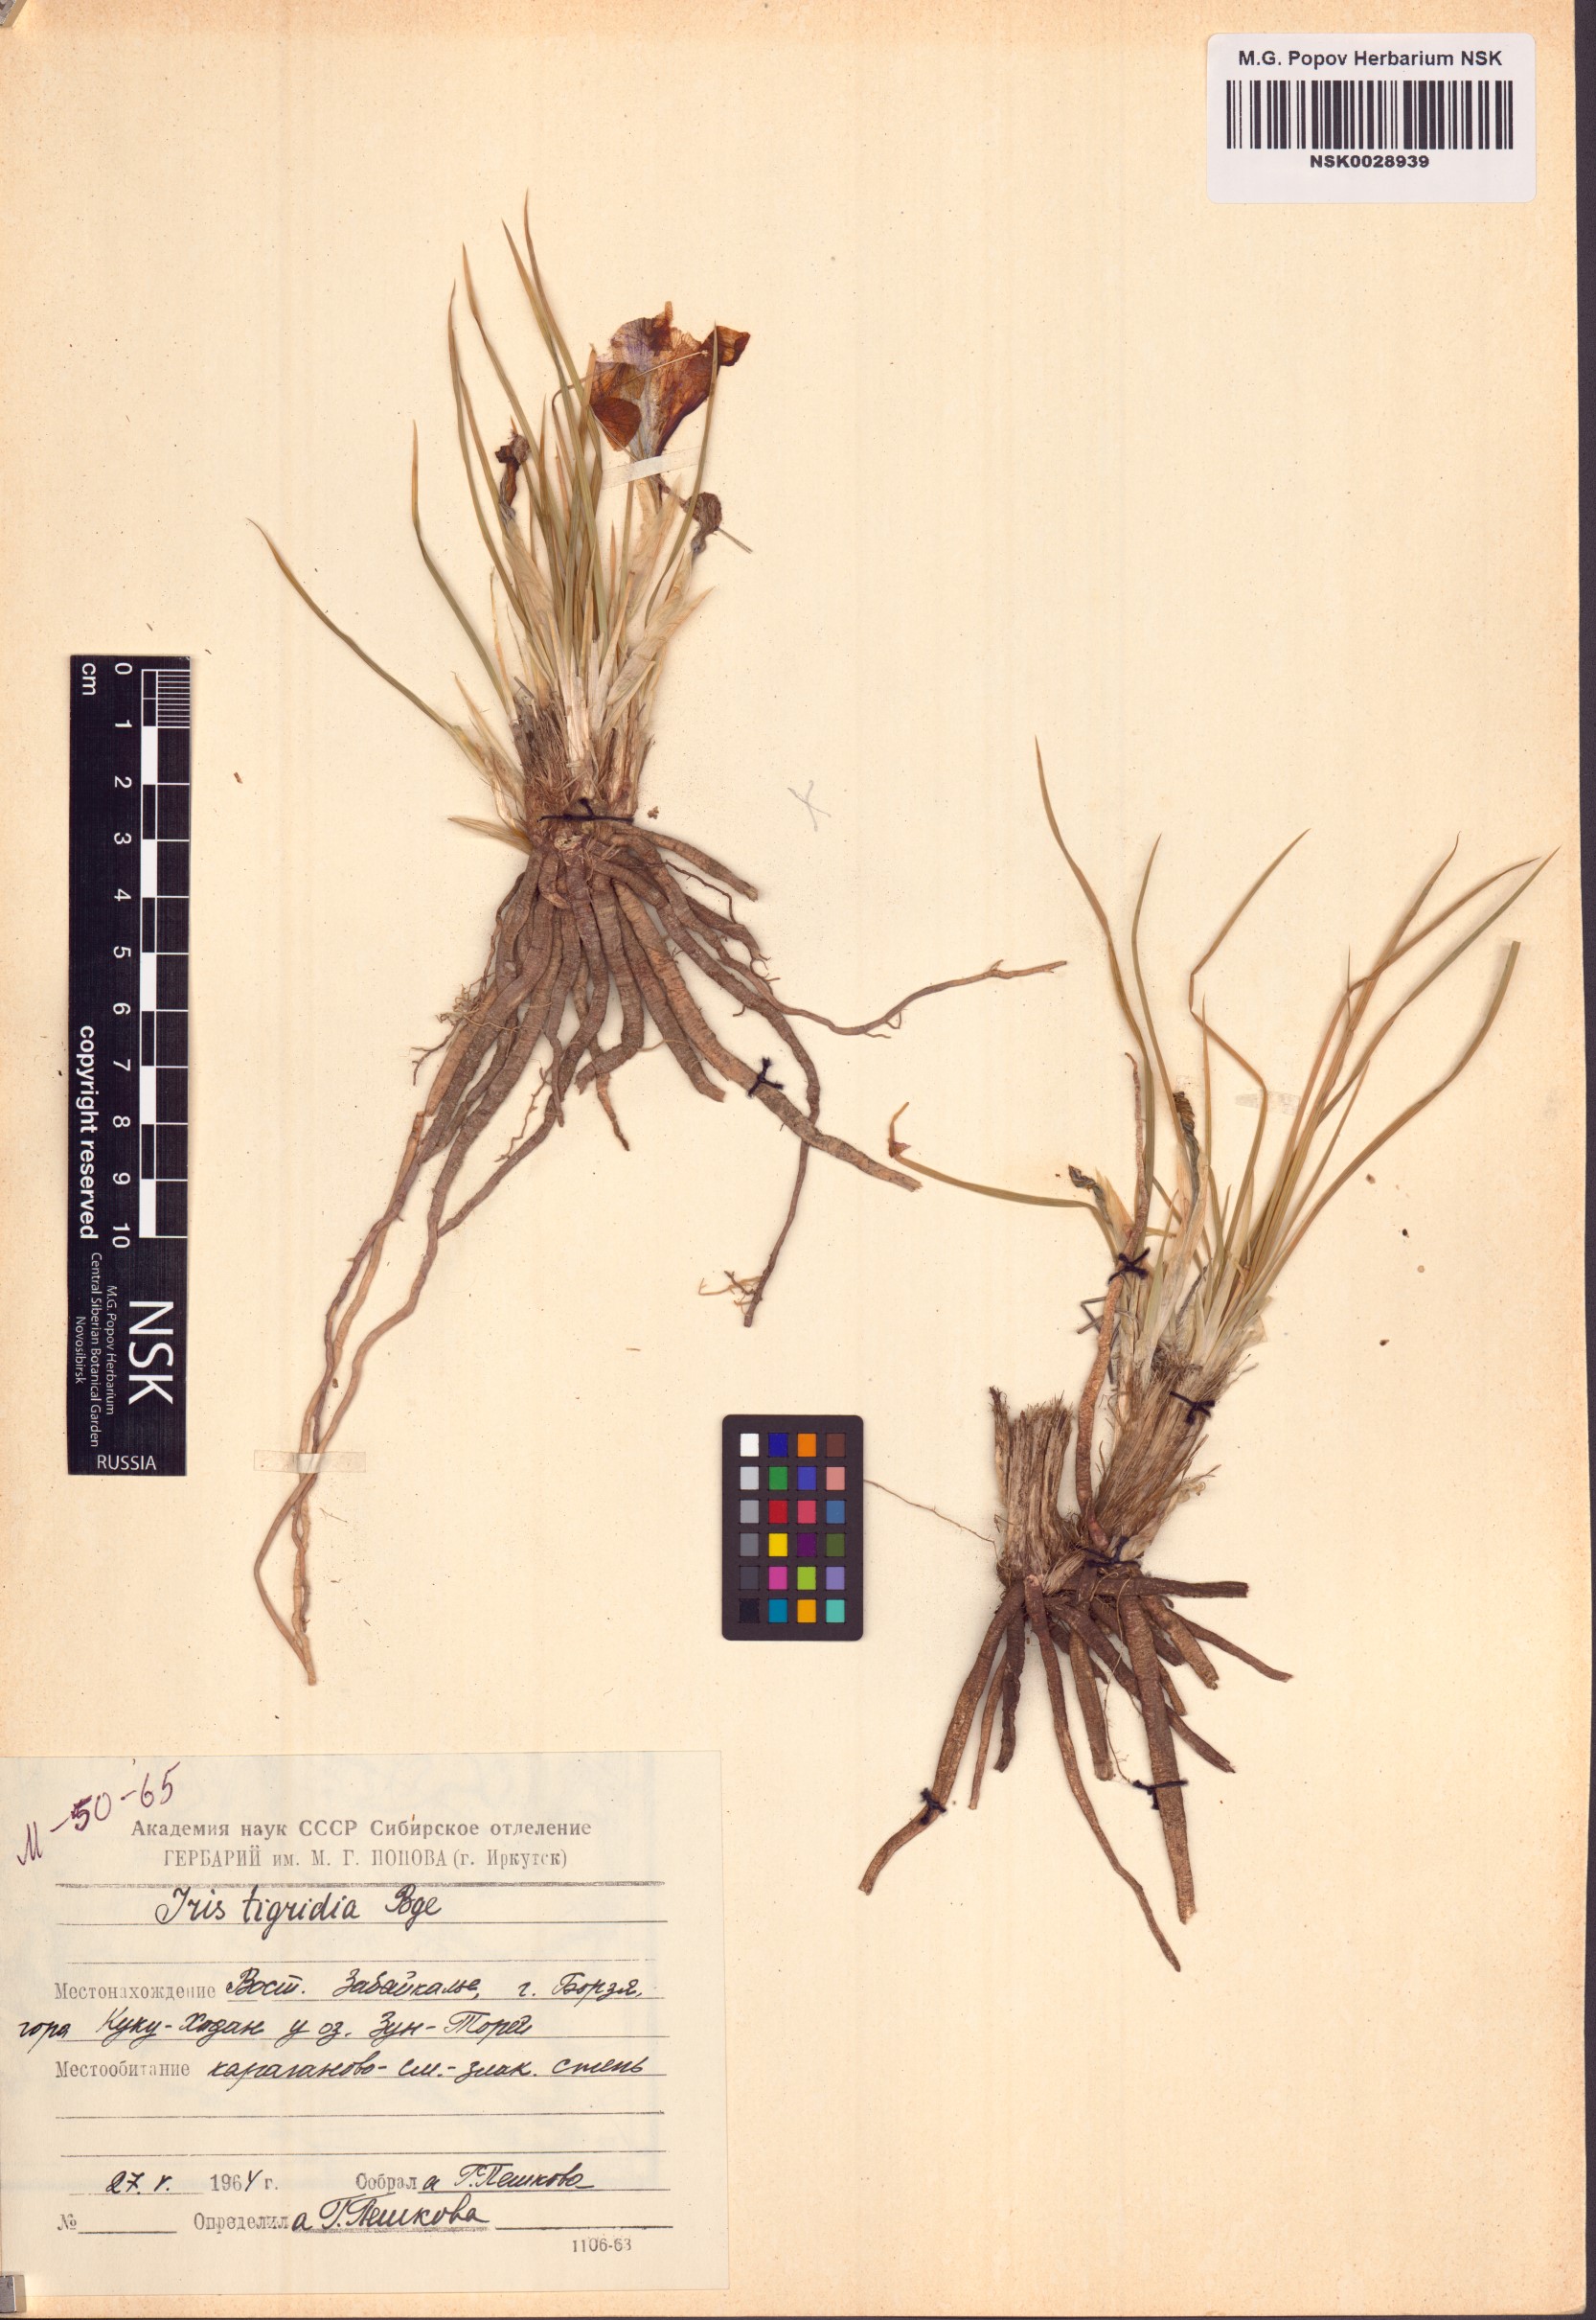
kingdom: Plantae
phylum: Tracheophyta
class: Liliopsida
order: Asparagales
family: Iridaceae
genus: Iris
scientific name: Iris tigridia
